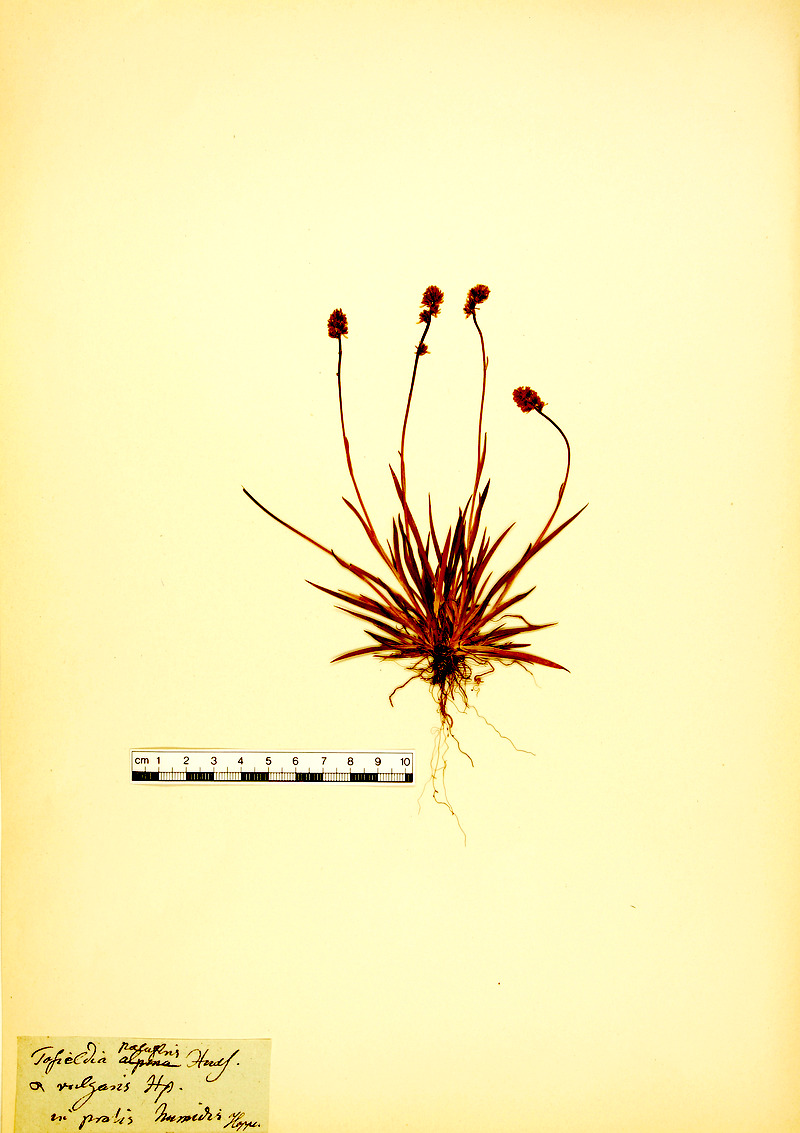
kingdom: Plantae
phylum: Tracheophyta
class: Liliopsida
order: Alismatales
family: Tofieldiaceae
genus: Tofieldia
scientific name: Tofieldia pusilla
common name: Scottish false asphodel
